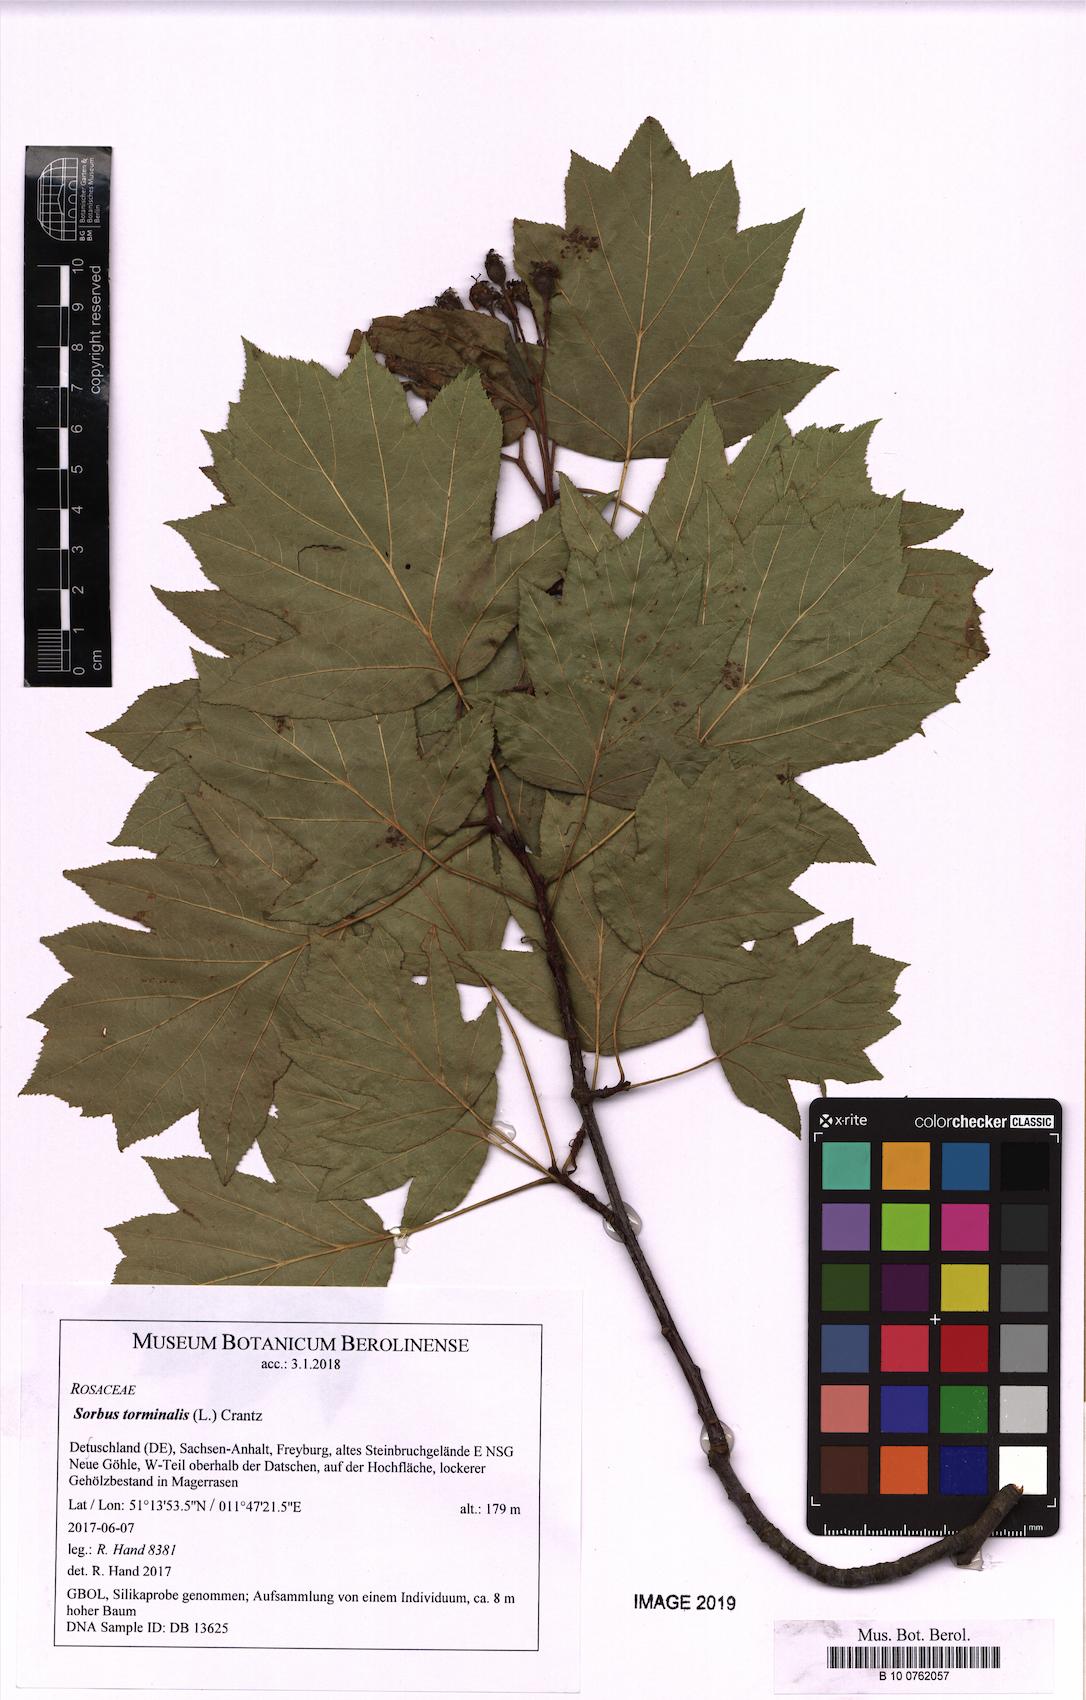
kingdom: Plantae
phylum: Tracheophyta
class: Magnoliopsida
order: Rosales
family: Rosaceae
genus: Torminalis
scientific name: Torminalis glaberrima
